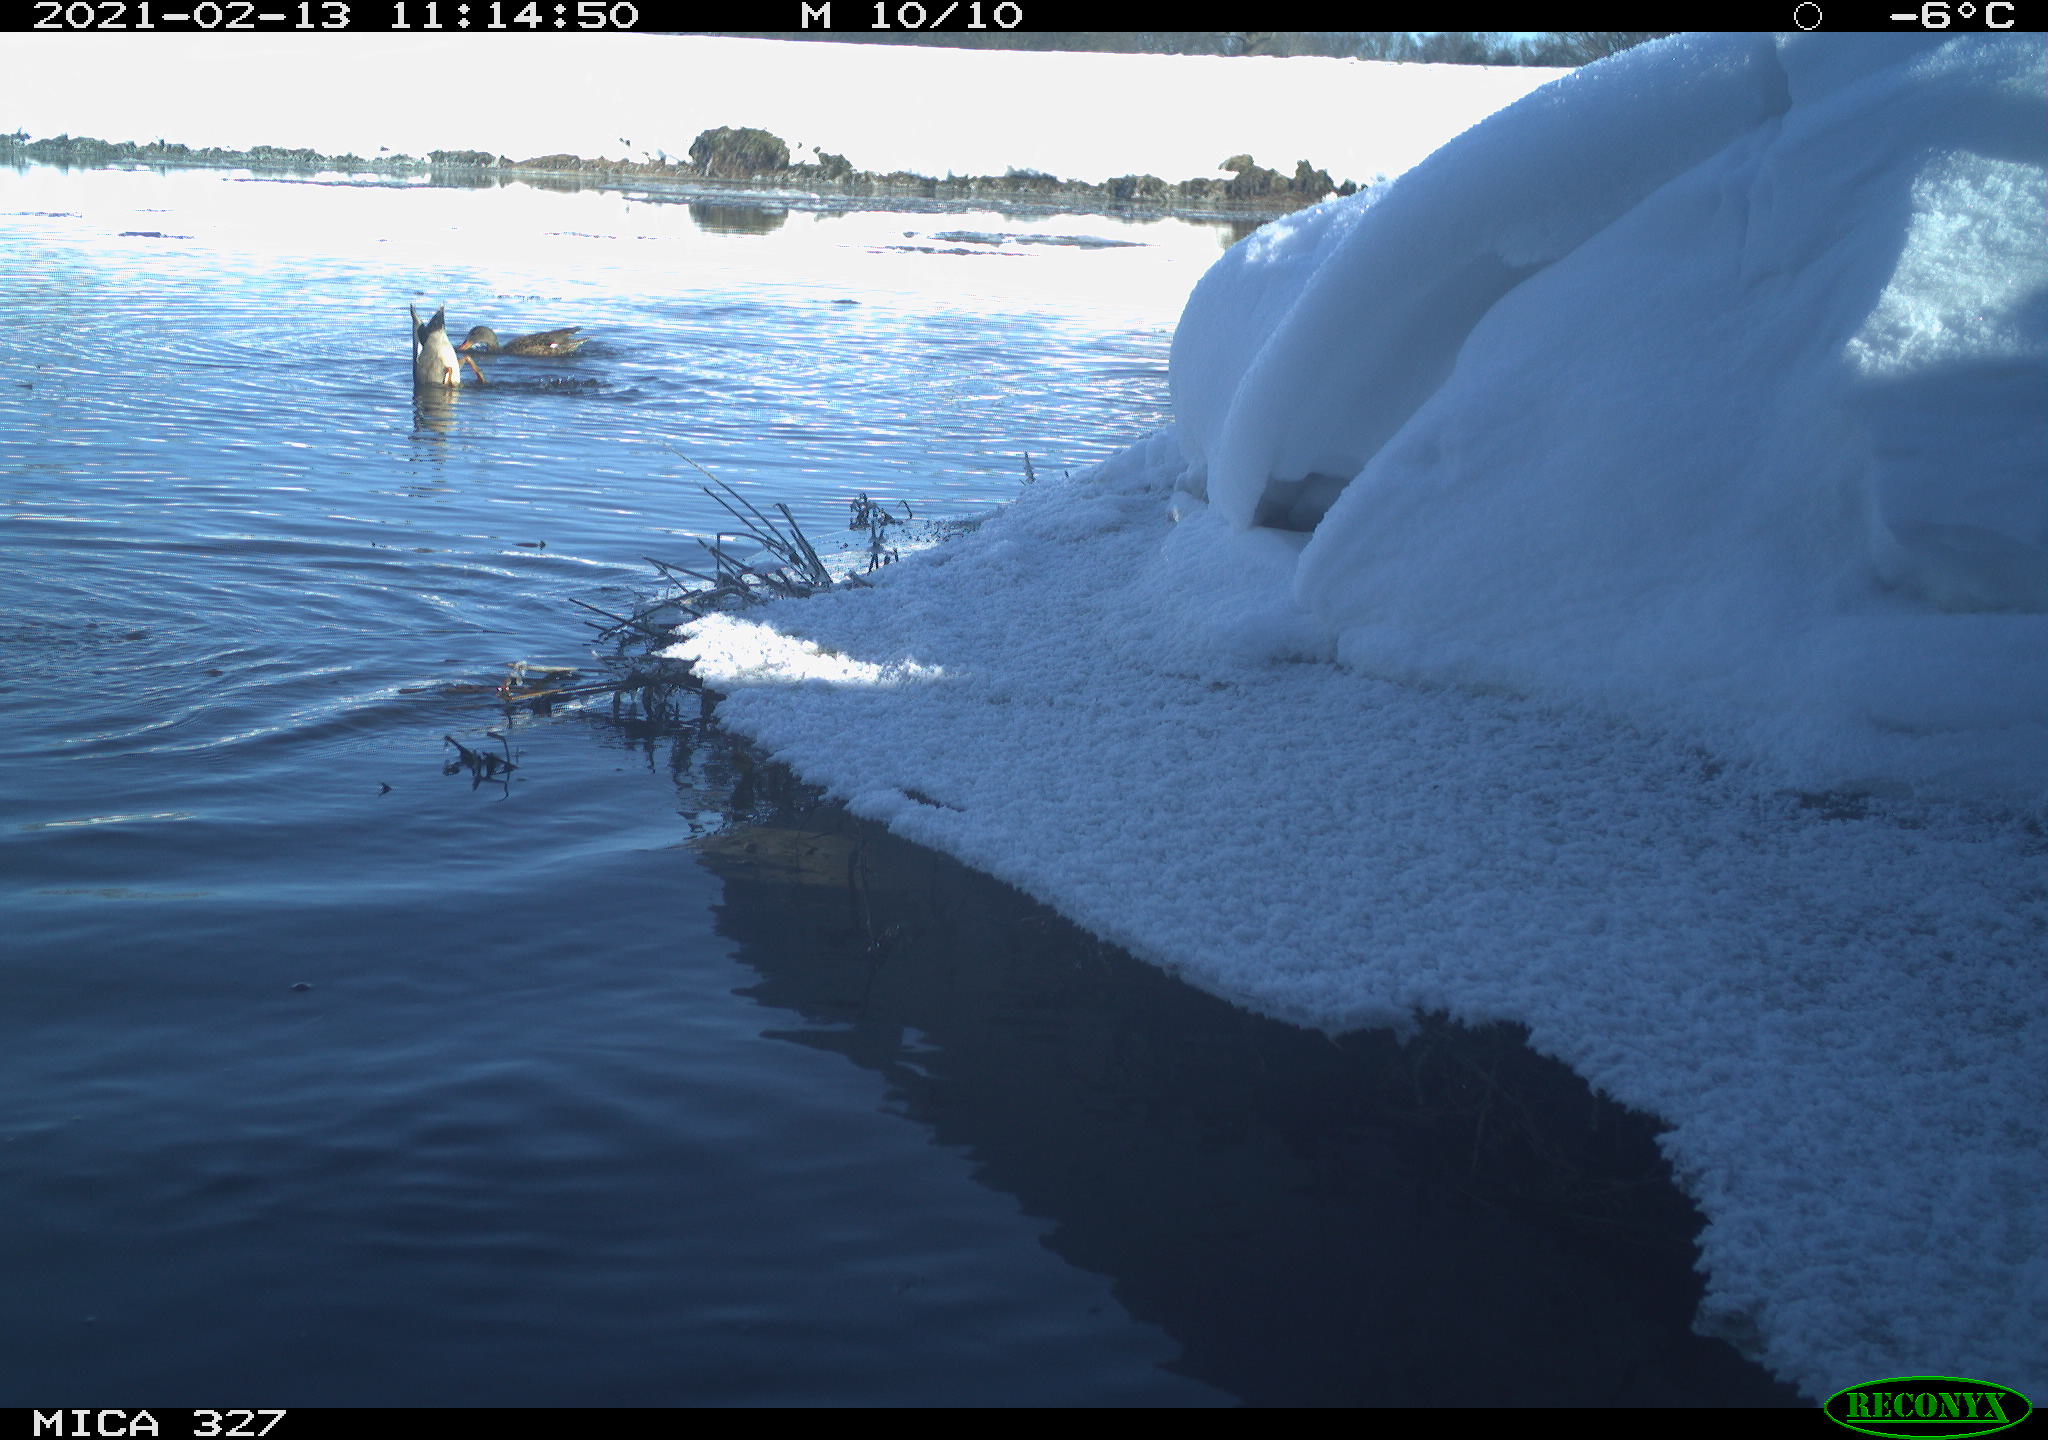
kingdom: Animalia
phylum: Chordata
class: Aves
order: Gruiformes
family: Rallidae
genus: Fulica
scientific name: Fulica atra
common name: Eurasian coot
